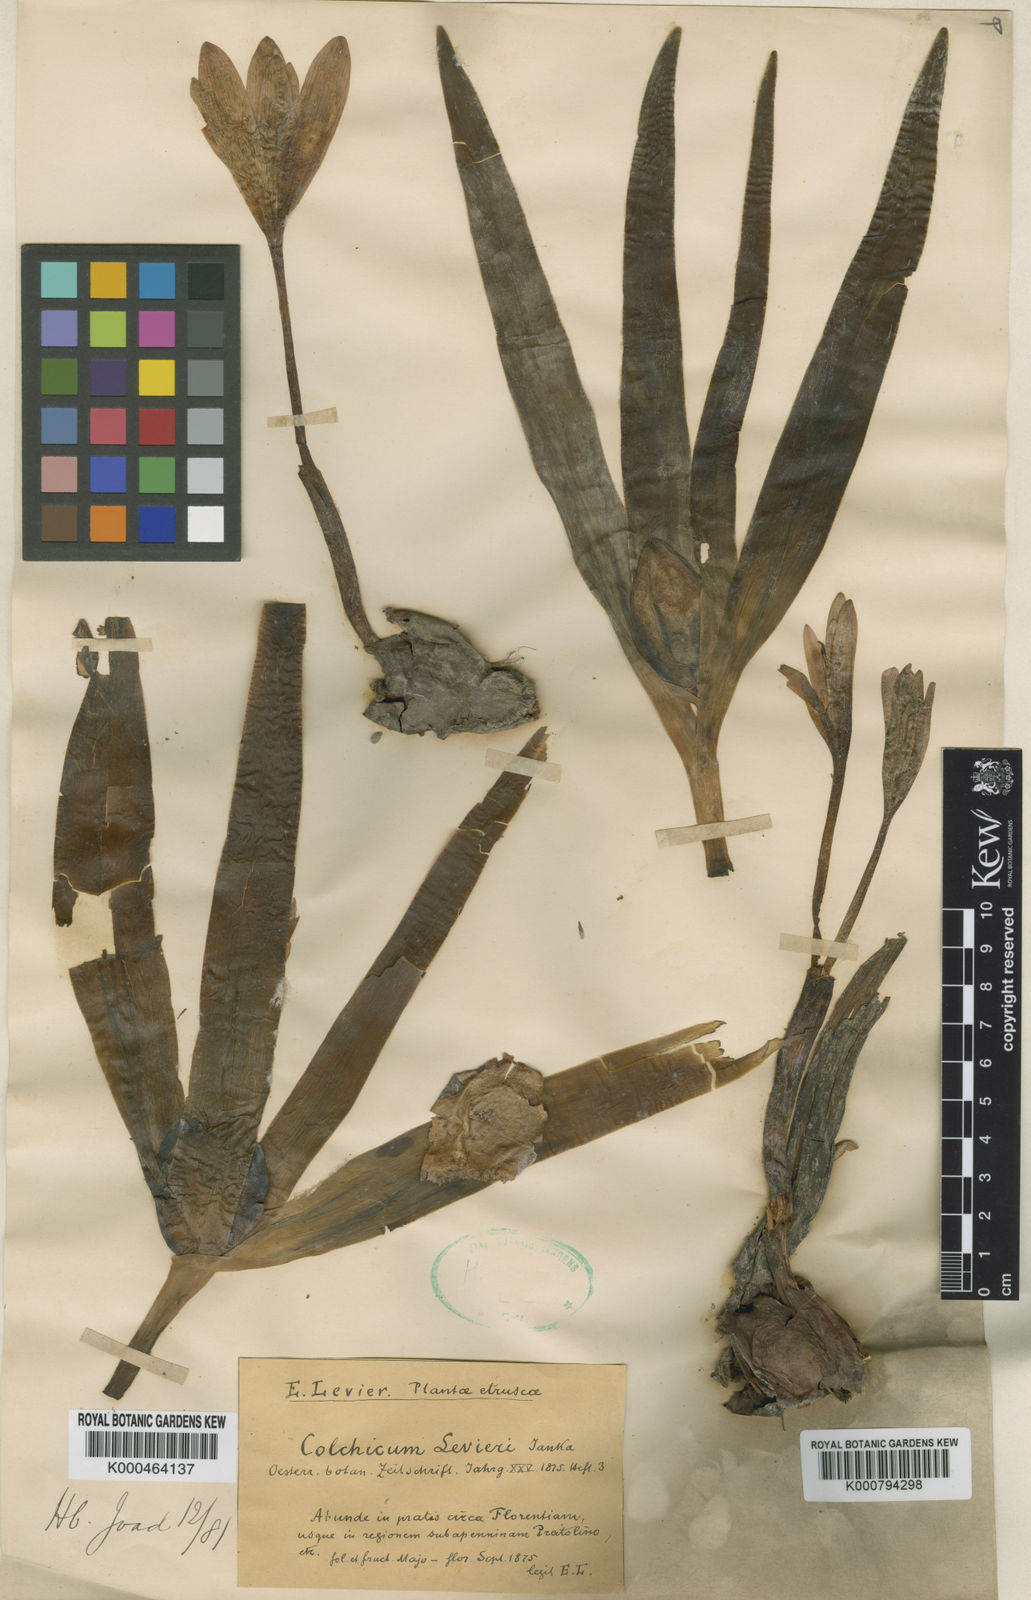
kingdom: Plantae
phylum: Tracheophyta
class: Liliopsida
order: Liliales
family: Colchicaceae
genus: Colchicum
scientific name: Colchicum lusitanum
